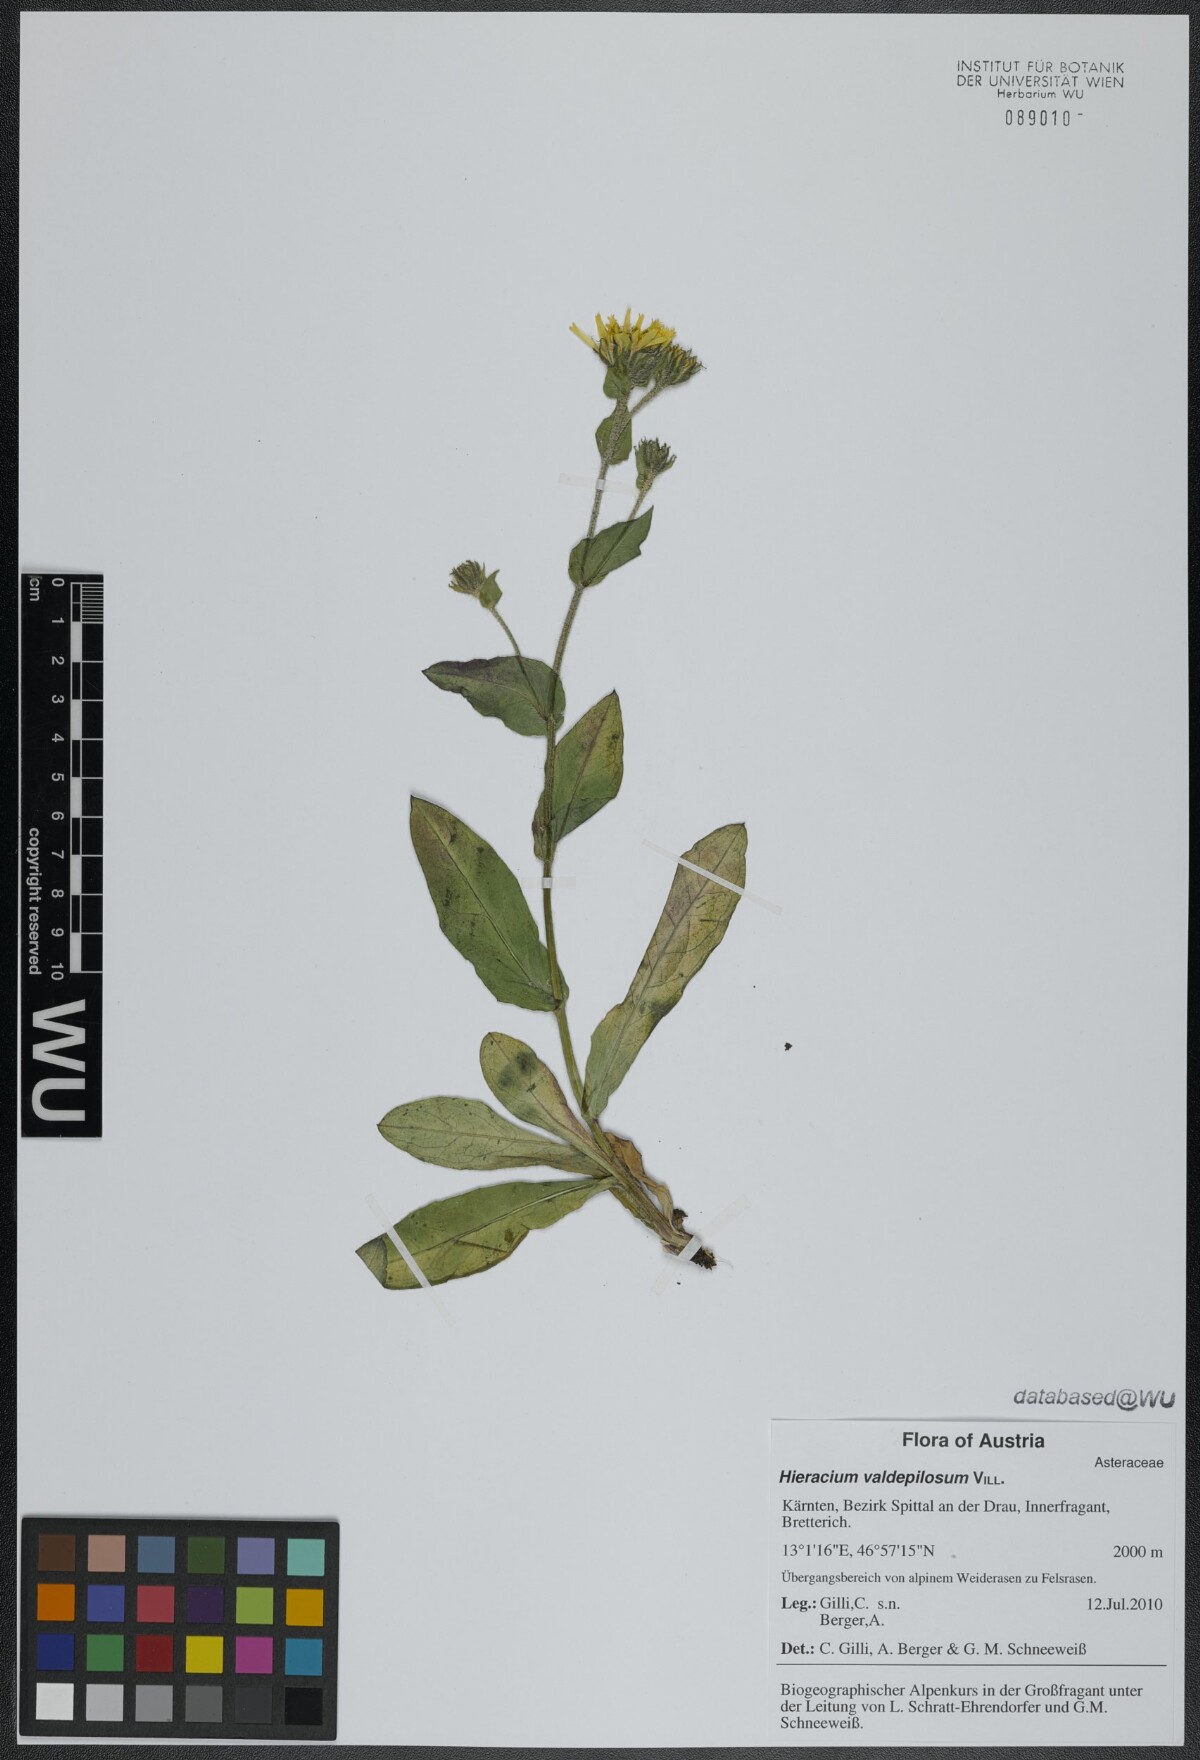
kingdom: Plantae
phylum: Tracheophyta
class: Magnoliopsida
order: Asterales
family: Asteraceae
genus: Hieracium
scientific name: Hieracium valdepilosum
